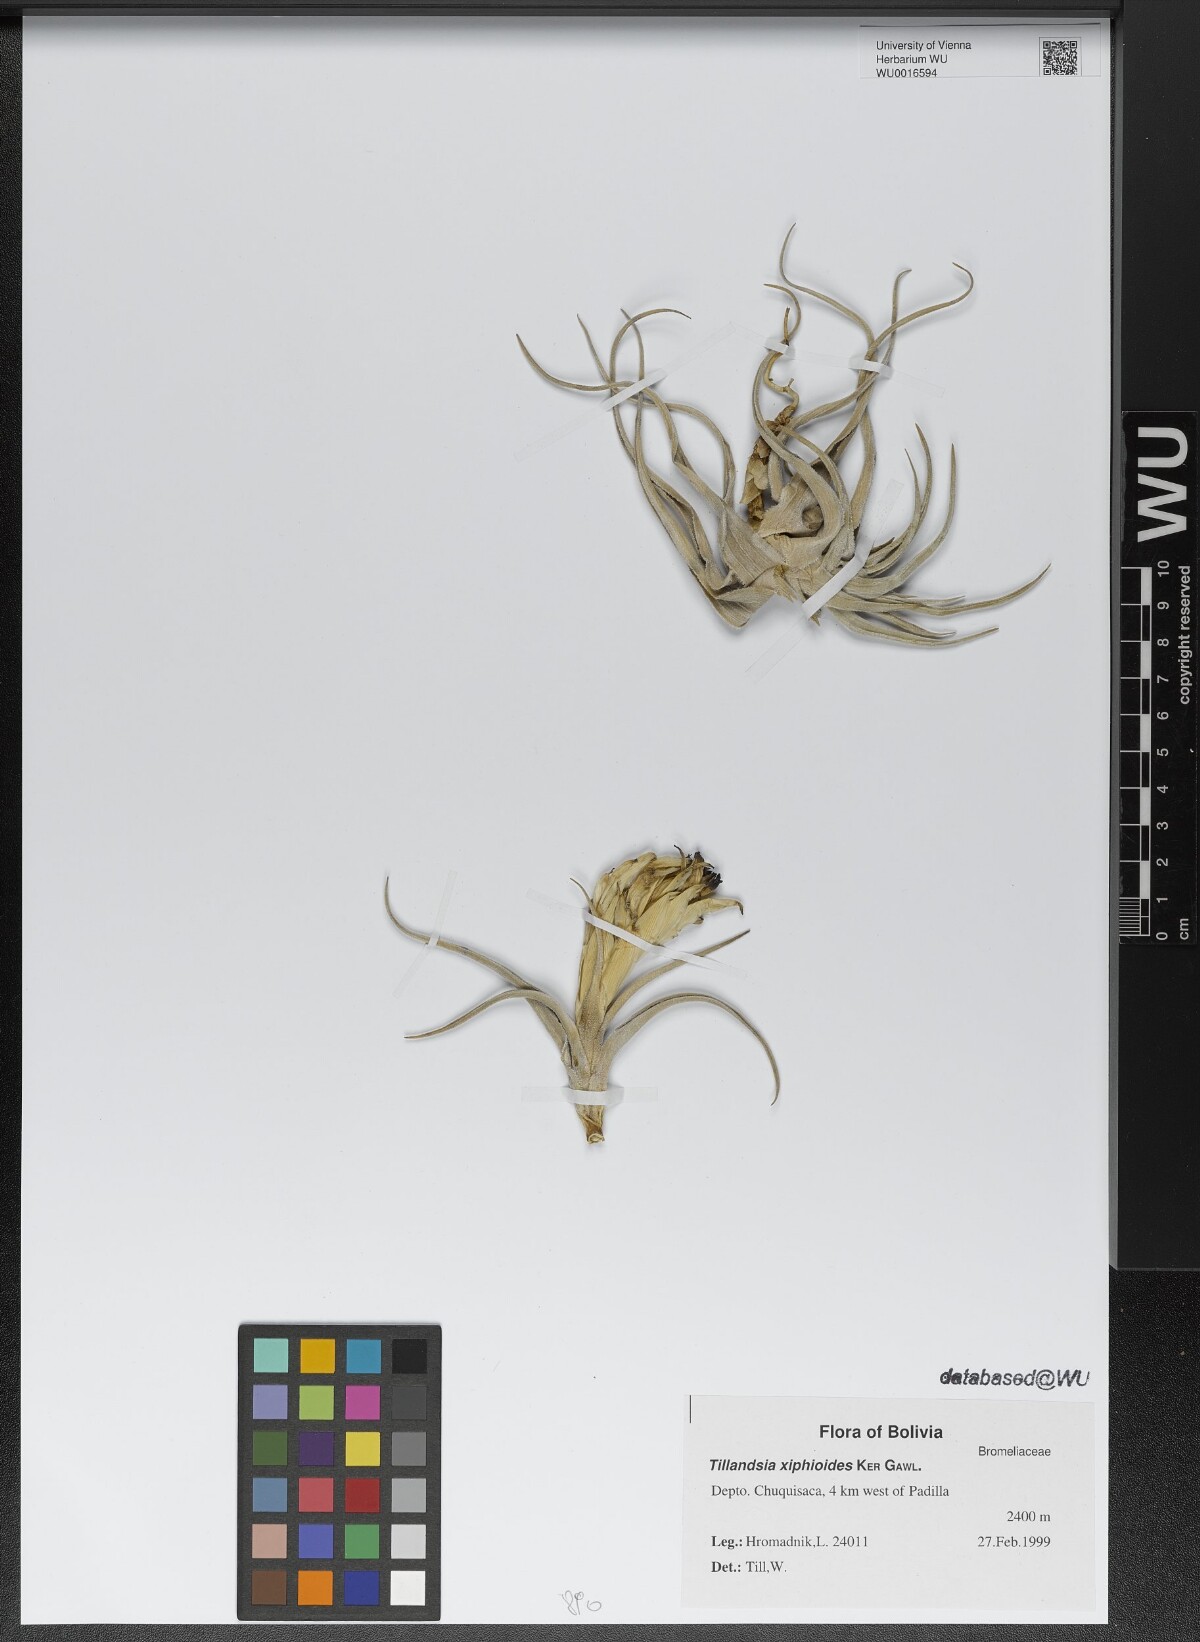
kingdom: Plantae
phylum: Tracheophyta
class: Liliopsida
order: Poales
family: Bromeliaceae
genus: Tillandsia
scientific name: Tillandsia xiphioides
